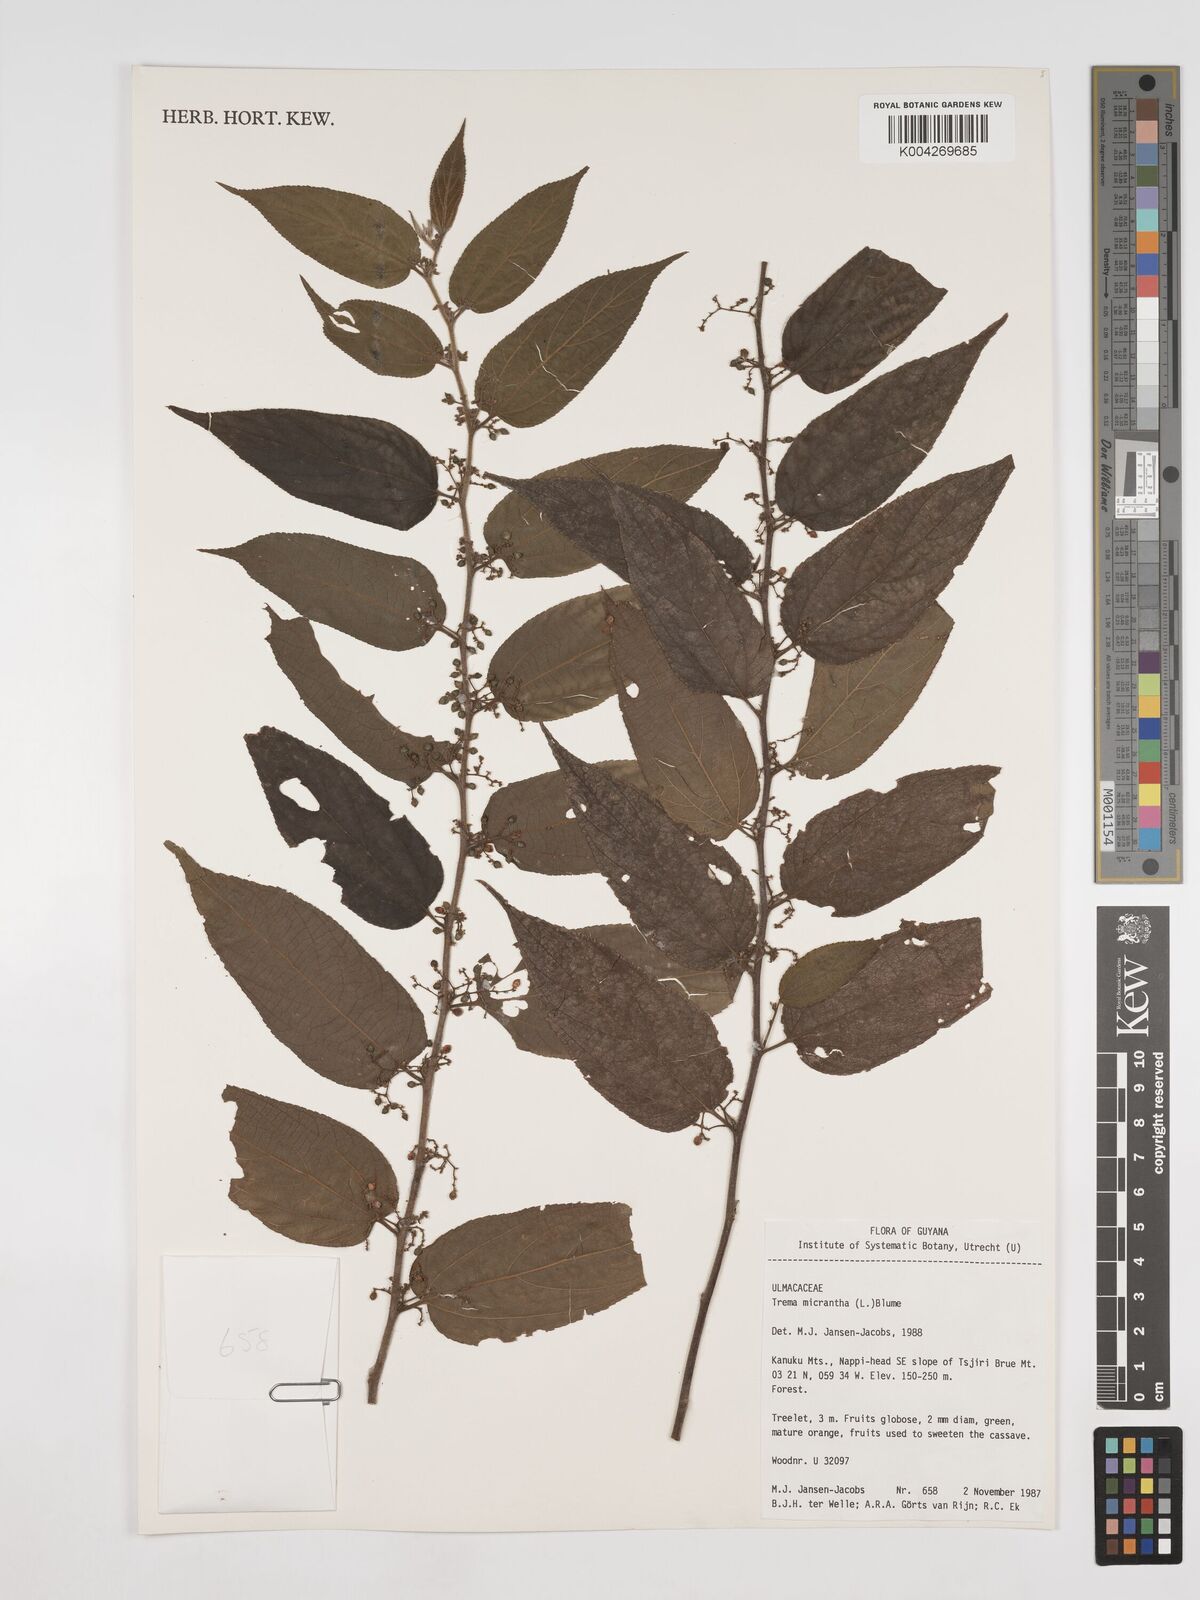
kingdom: Plantae
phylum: Tracheophyta
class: Magnoliopsida
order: Rosales
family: Cannabaceae
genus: Trema
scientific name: Trema micranthum
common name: Jamaican nettletree
